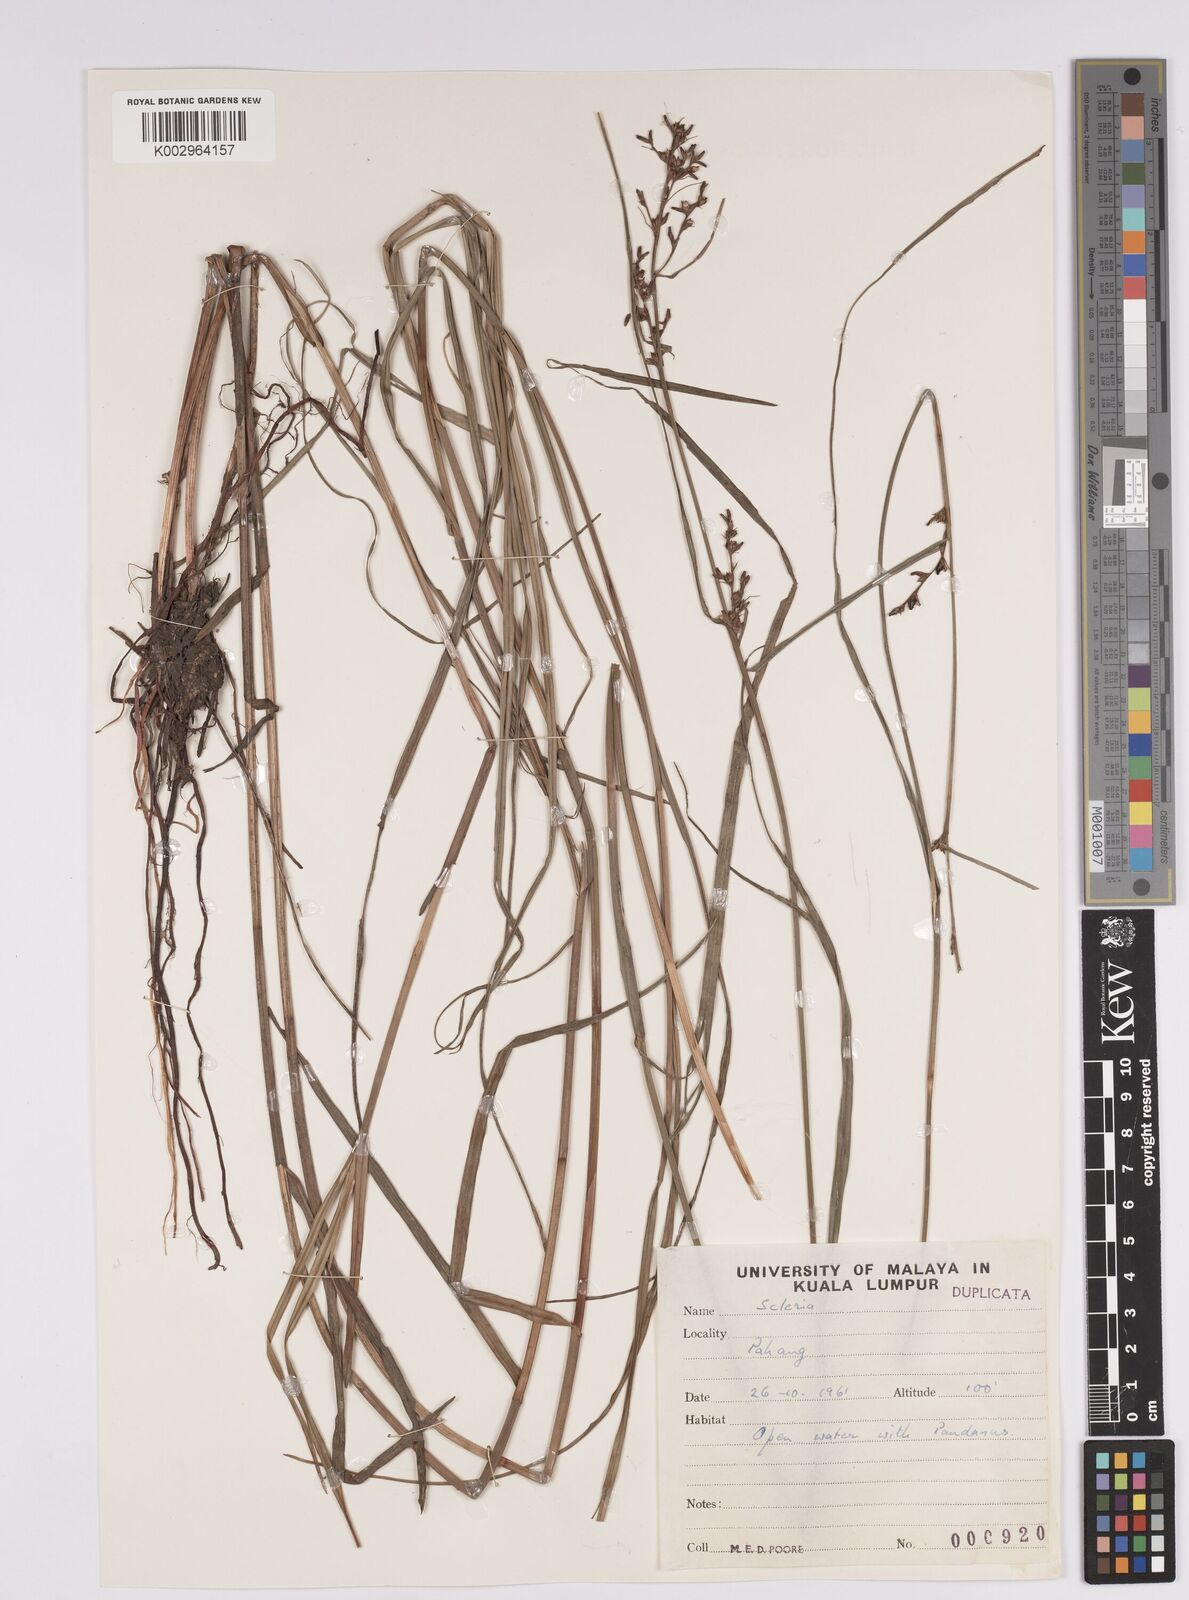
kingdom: Plantae
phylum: Tracheophyta
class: Liliopsida
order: Poales
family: Cyperaceae
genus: Scleria
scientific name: Scleria
